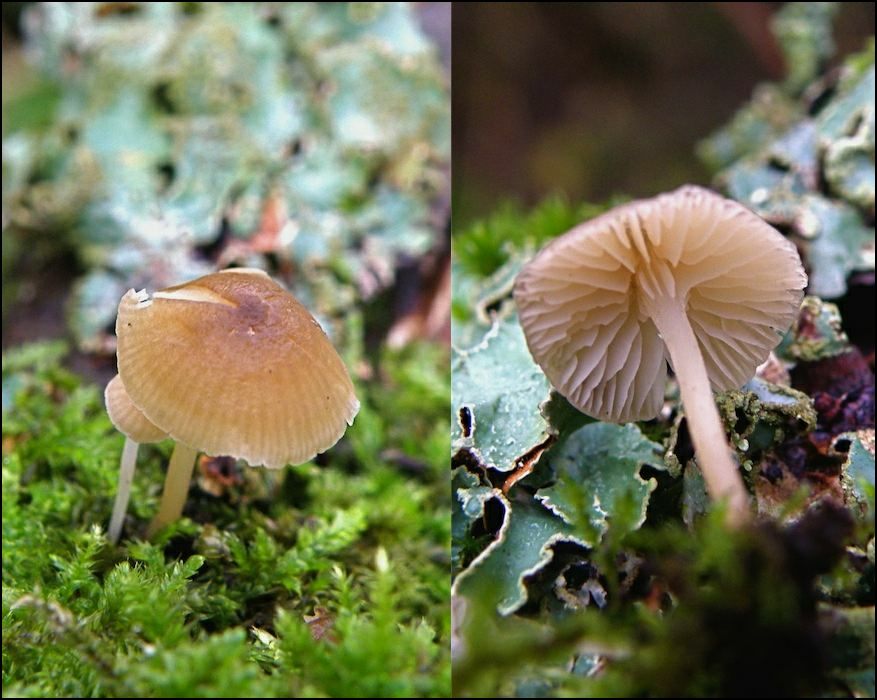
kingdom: Fungi
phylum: Basidiomycota
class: Agaricomycetes
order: Agaricales
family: Porotheleaceae
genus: Phloeomana
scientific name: Phloeomana speirea
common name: kvist-huesvamp
